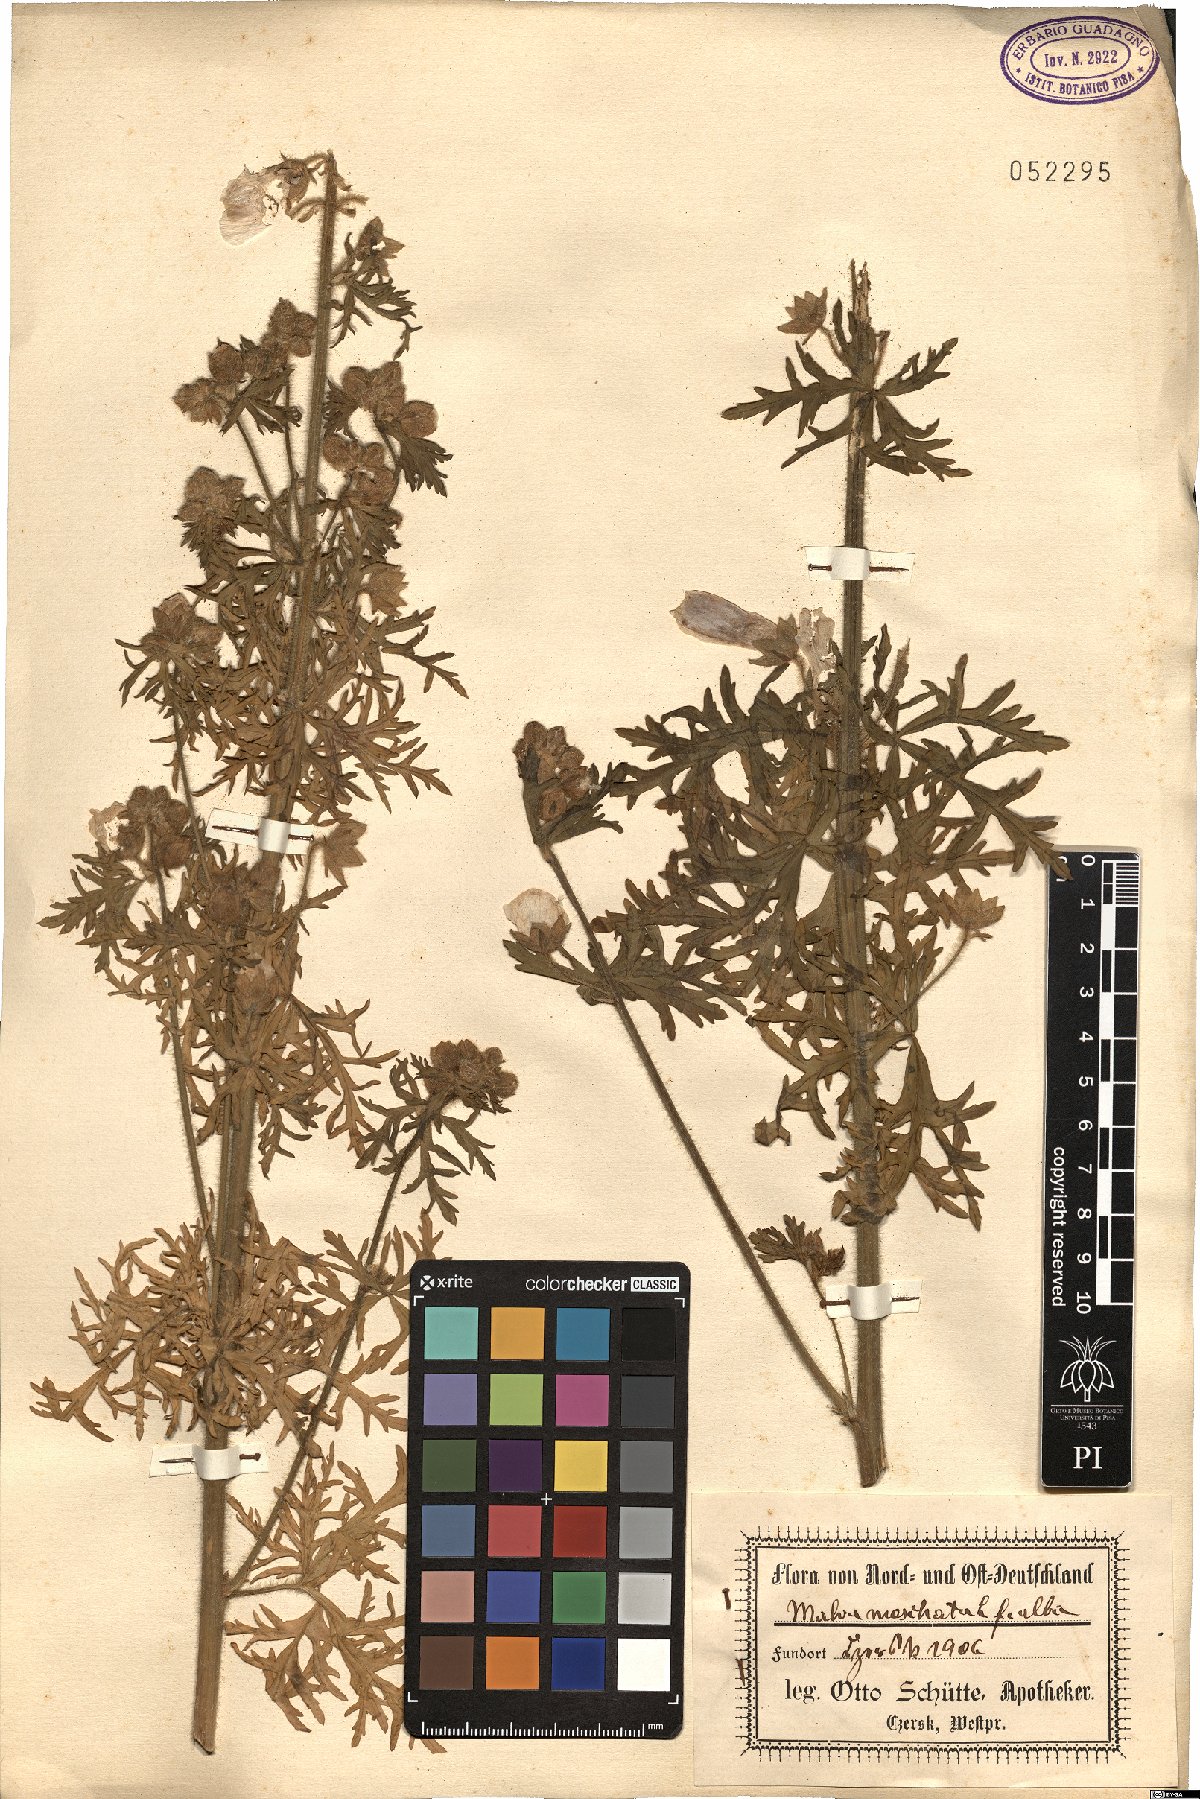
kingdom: Plantae
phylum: Tracheophyta
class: Magnoliopsida
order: Malvales
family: Malvaceae
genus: Malva
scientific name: Malva moschata
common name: Musk mallow
